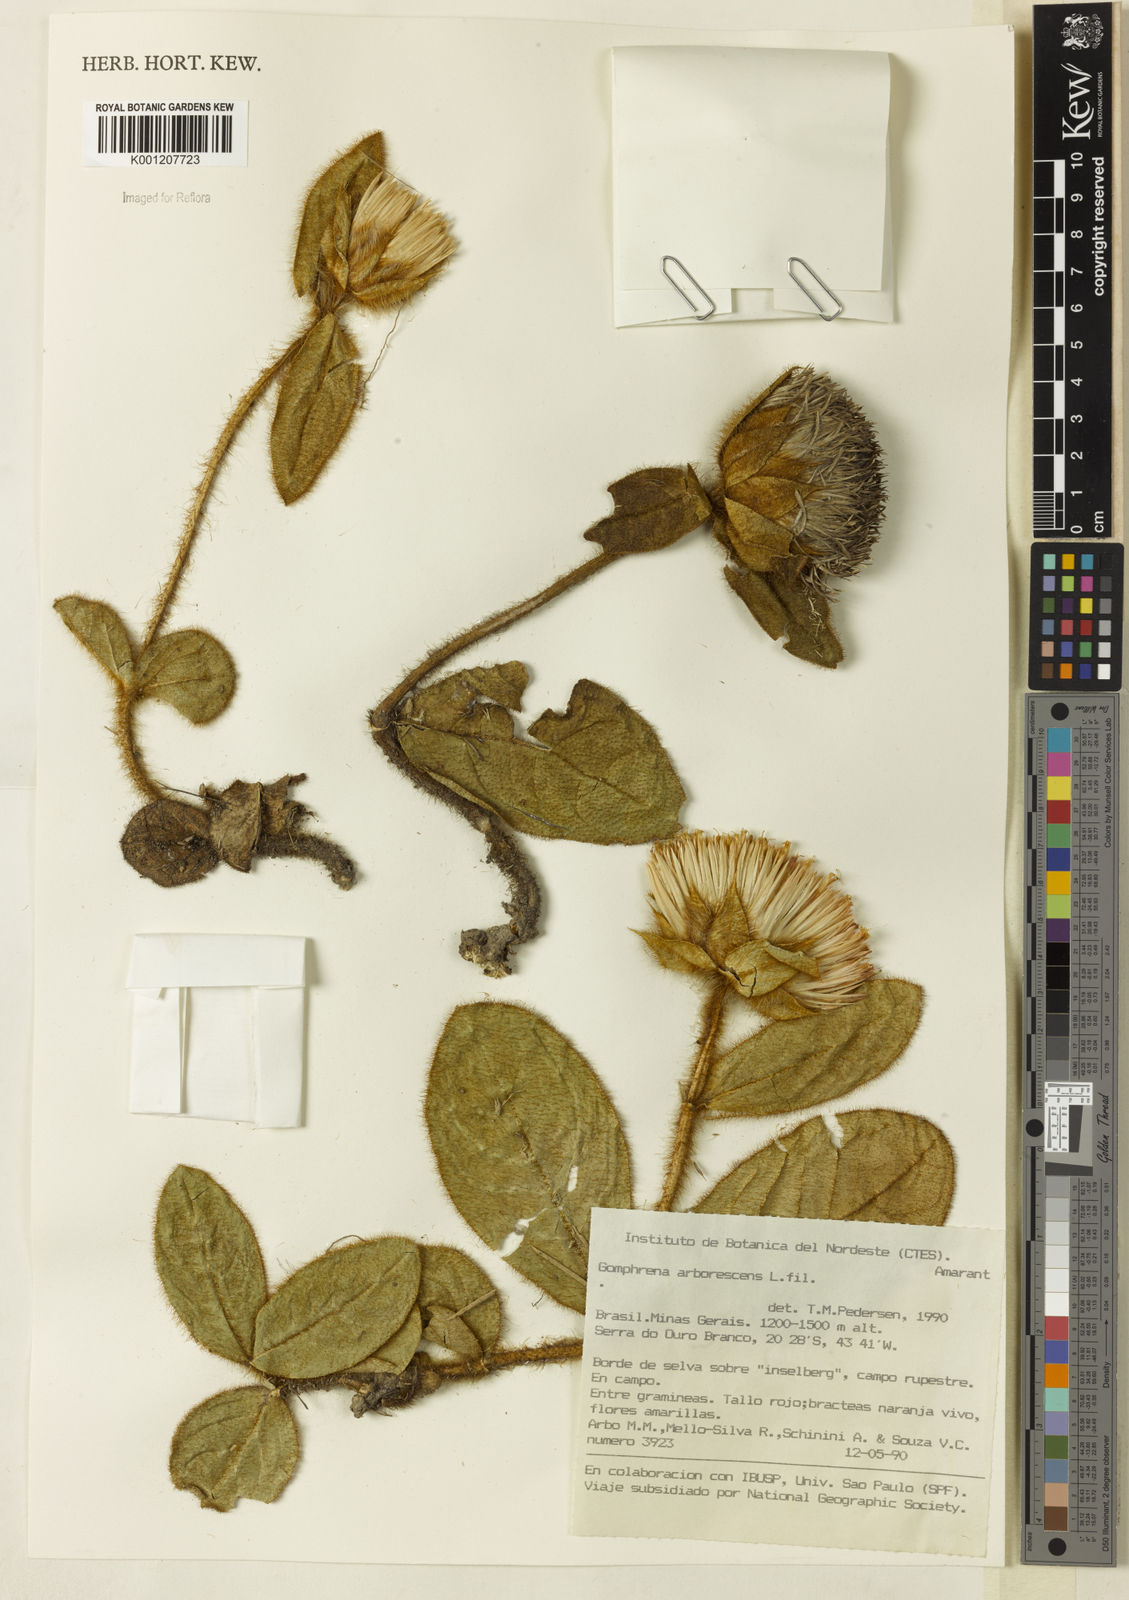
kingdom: Plantae
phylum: Tracheophyta
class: Magnoliopsida
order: Caryophyllales
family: Amaranthaceae
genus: Gomphrena
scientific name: Gomphrena arborescens
